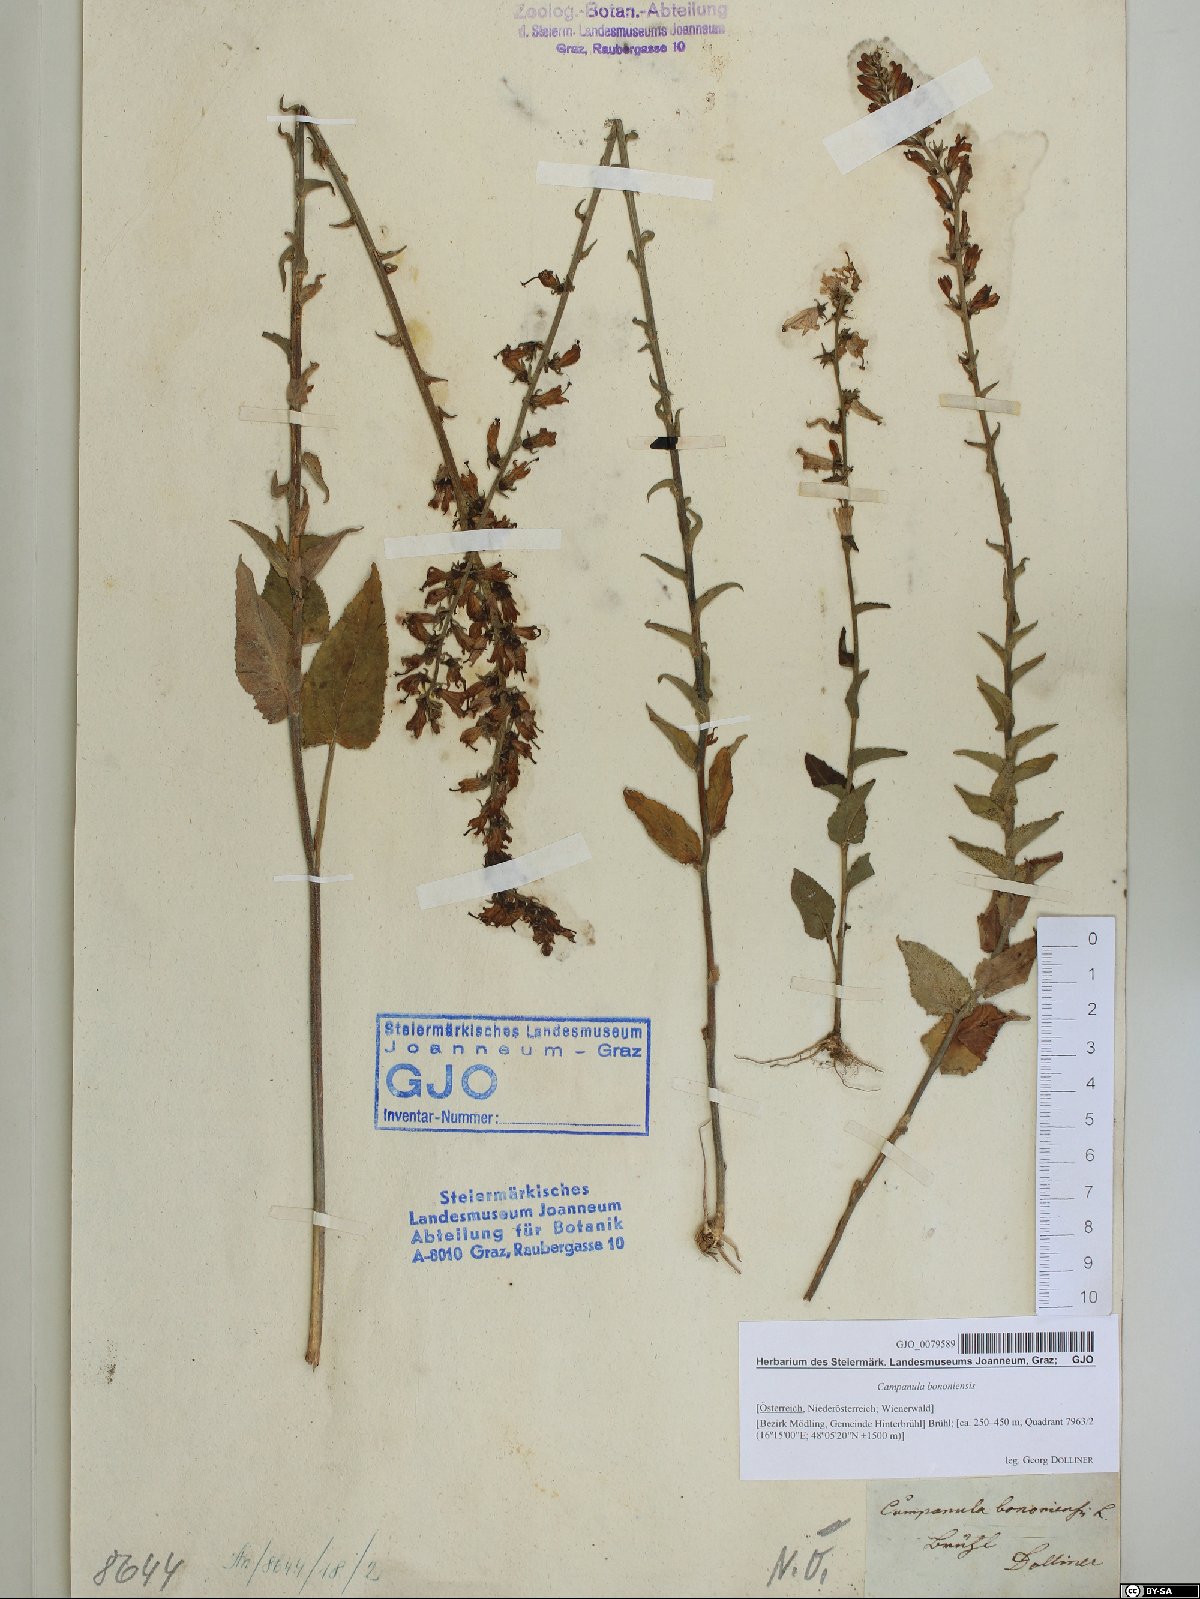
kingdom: Plantae
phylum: Tracheophyta
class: Magnoliopsida
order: Asterales
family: Campanulaceae
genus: Campanula
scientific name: Campanula bononiensis
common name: Pale bellflower
